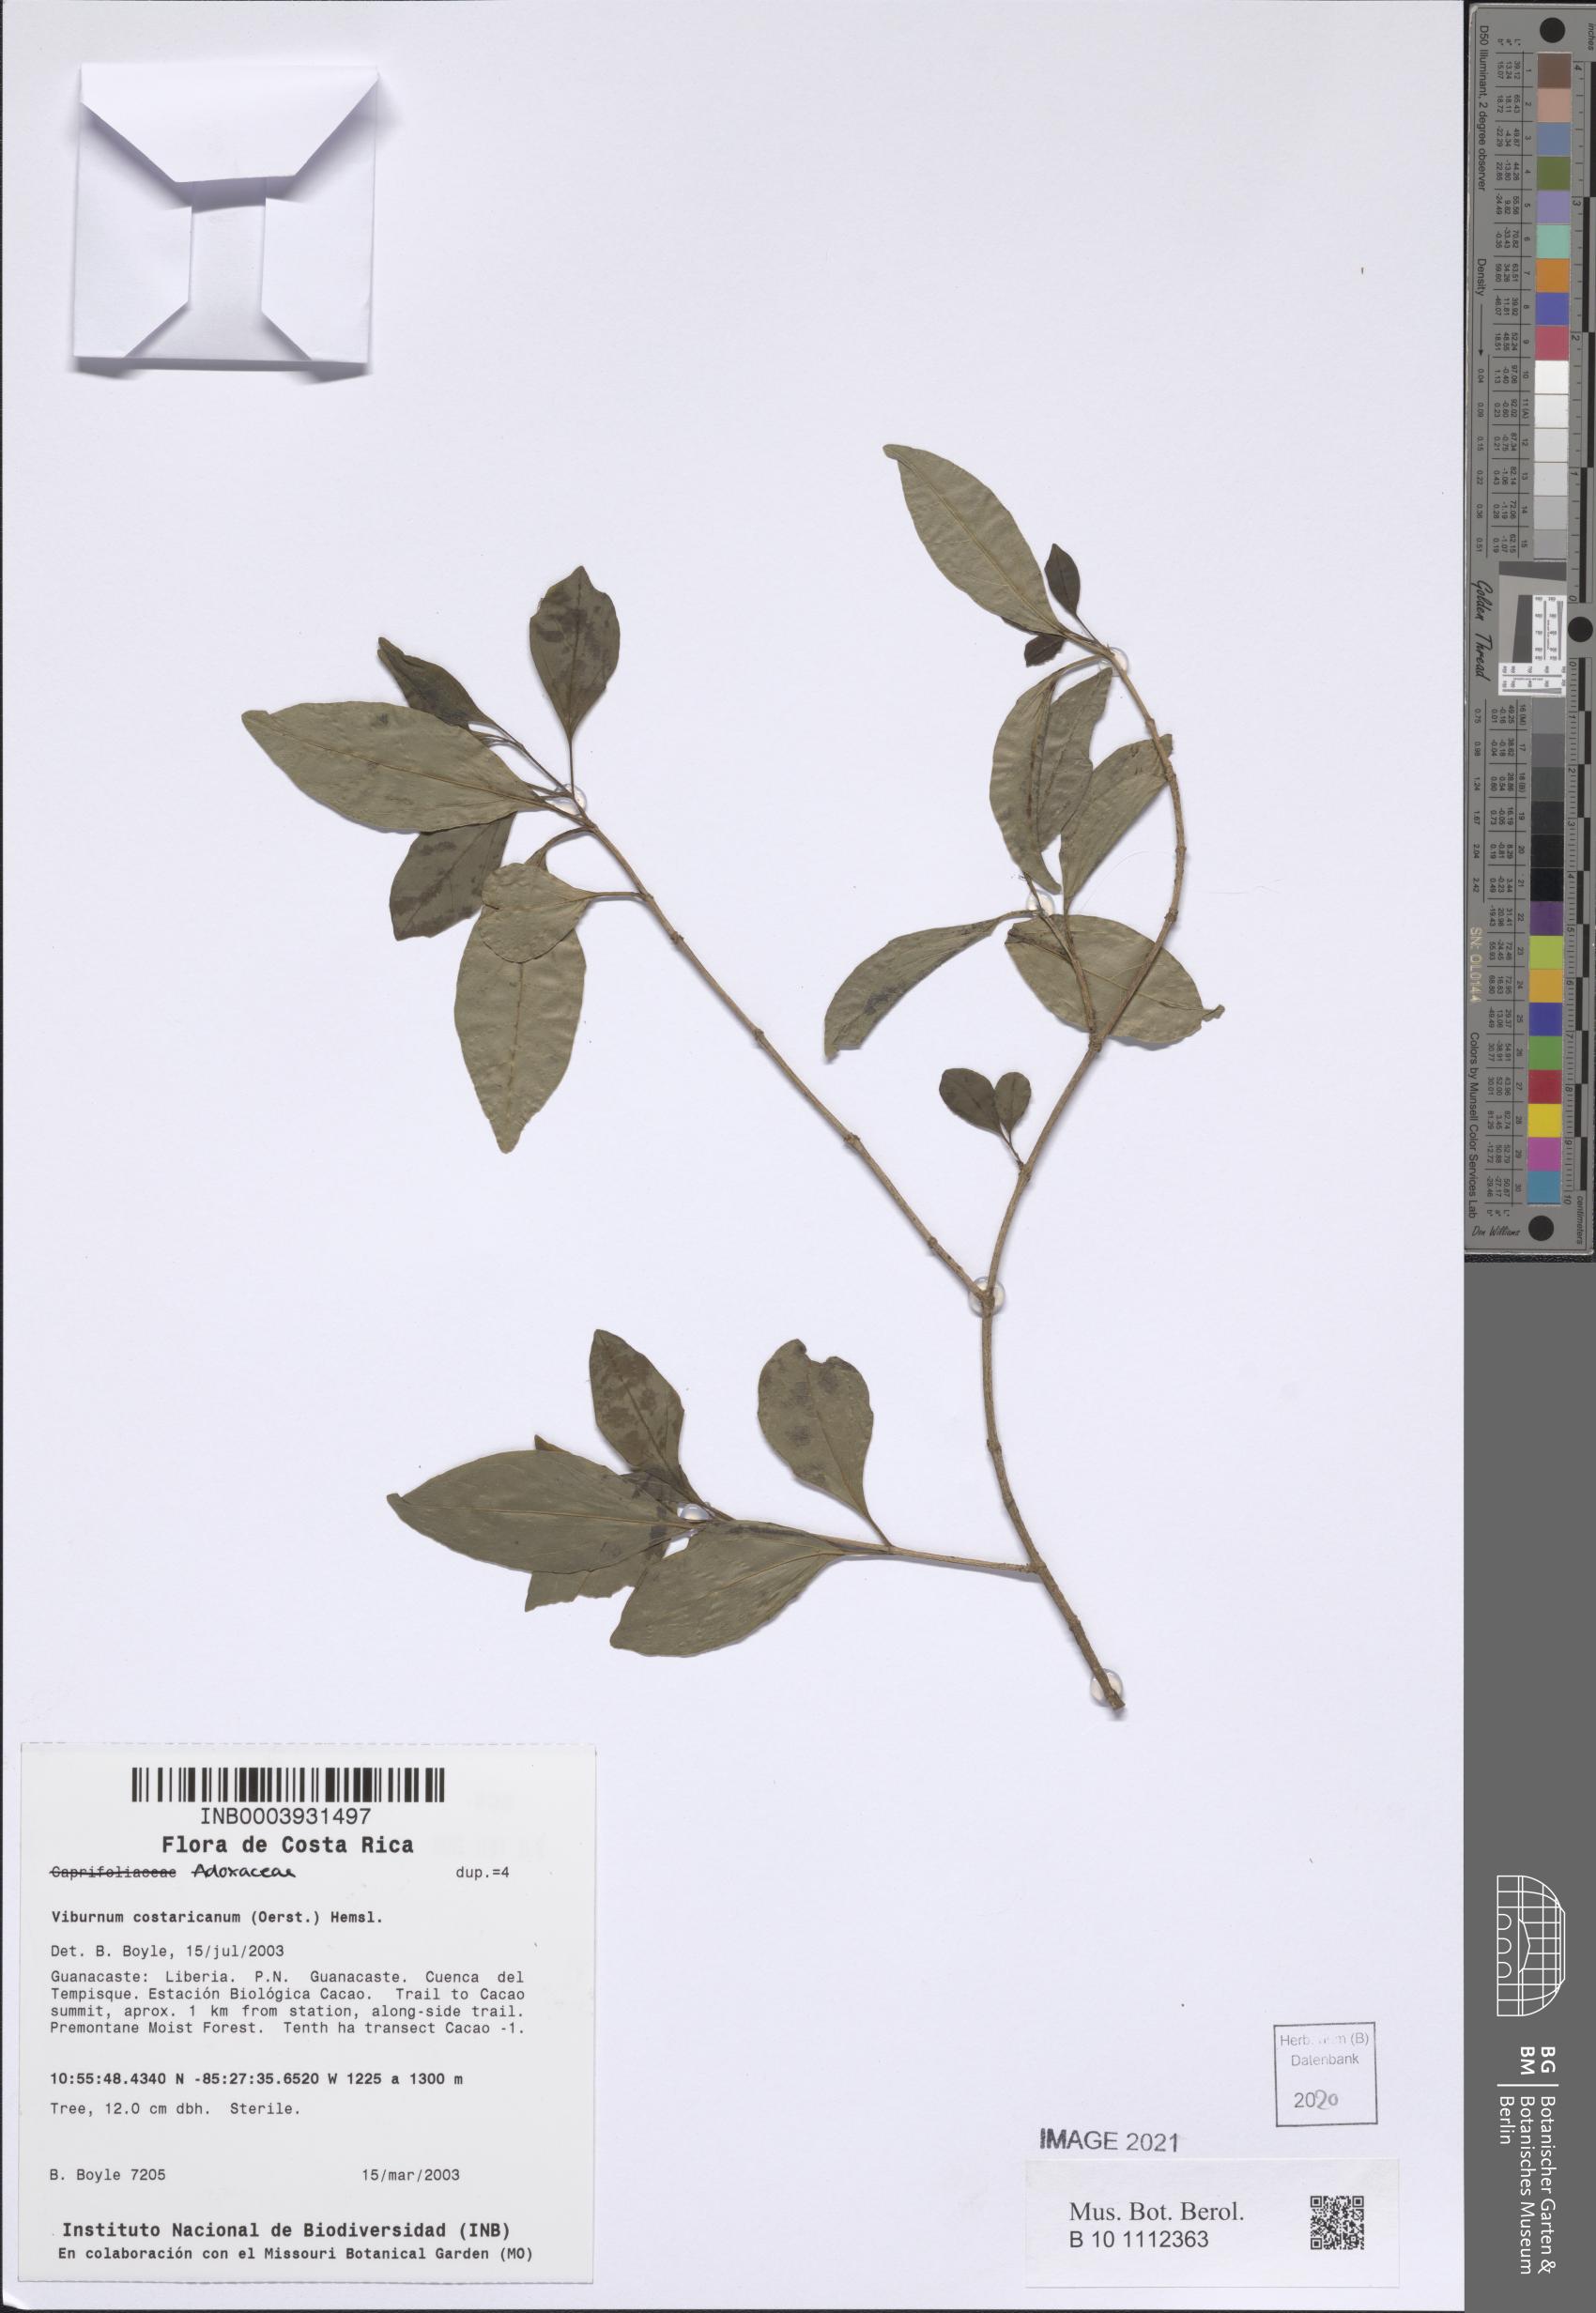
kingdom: Plantae
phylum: Tracheophyta
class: Magnoliopsida
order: Dipsacales
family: Viburnaceae
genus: Viburnum
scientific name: Viburnum costaricanum
